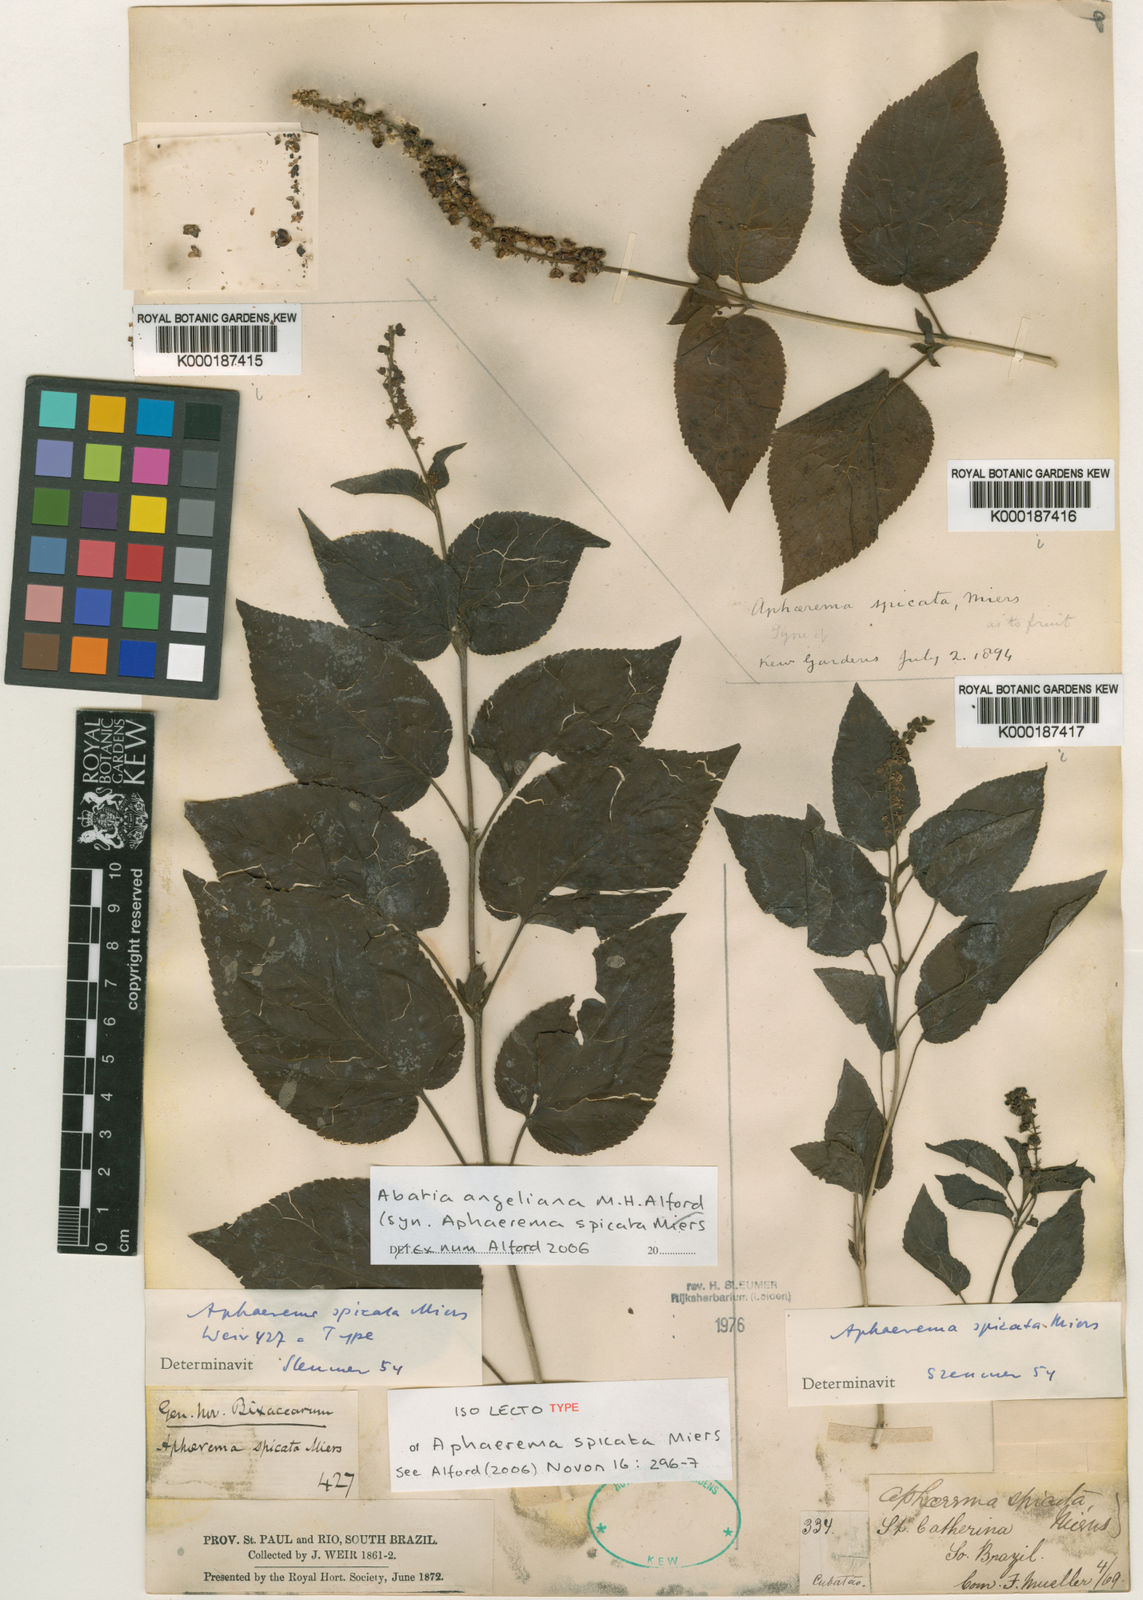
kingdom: Plantae
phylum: Tracheophyta
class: Magnoliopsida
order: Malpighiales
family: Salicaceae
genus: Abatia
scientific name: Abatia angeliana
